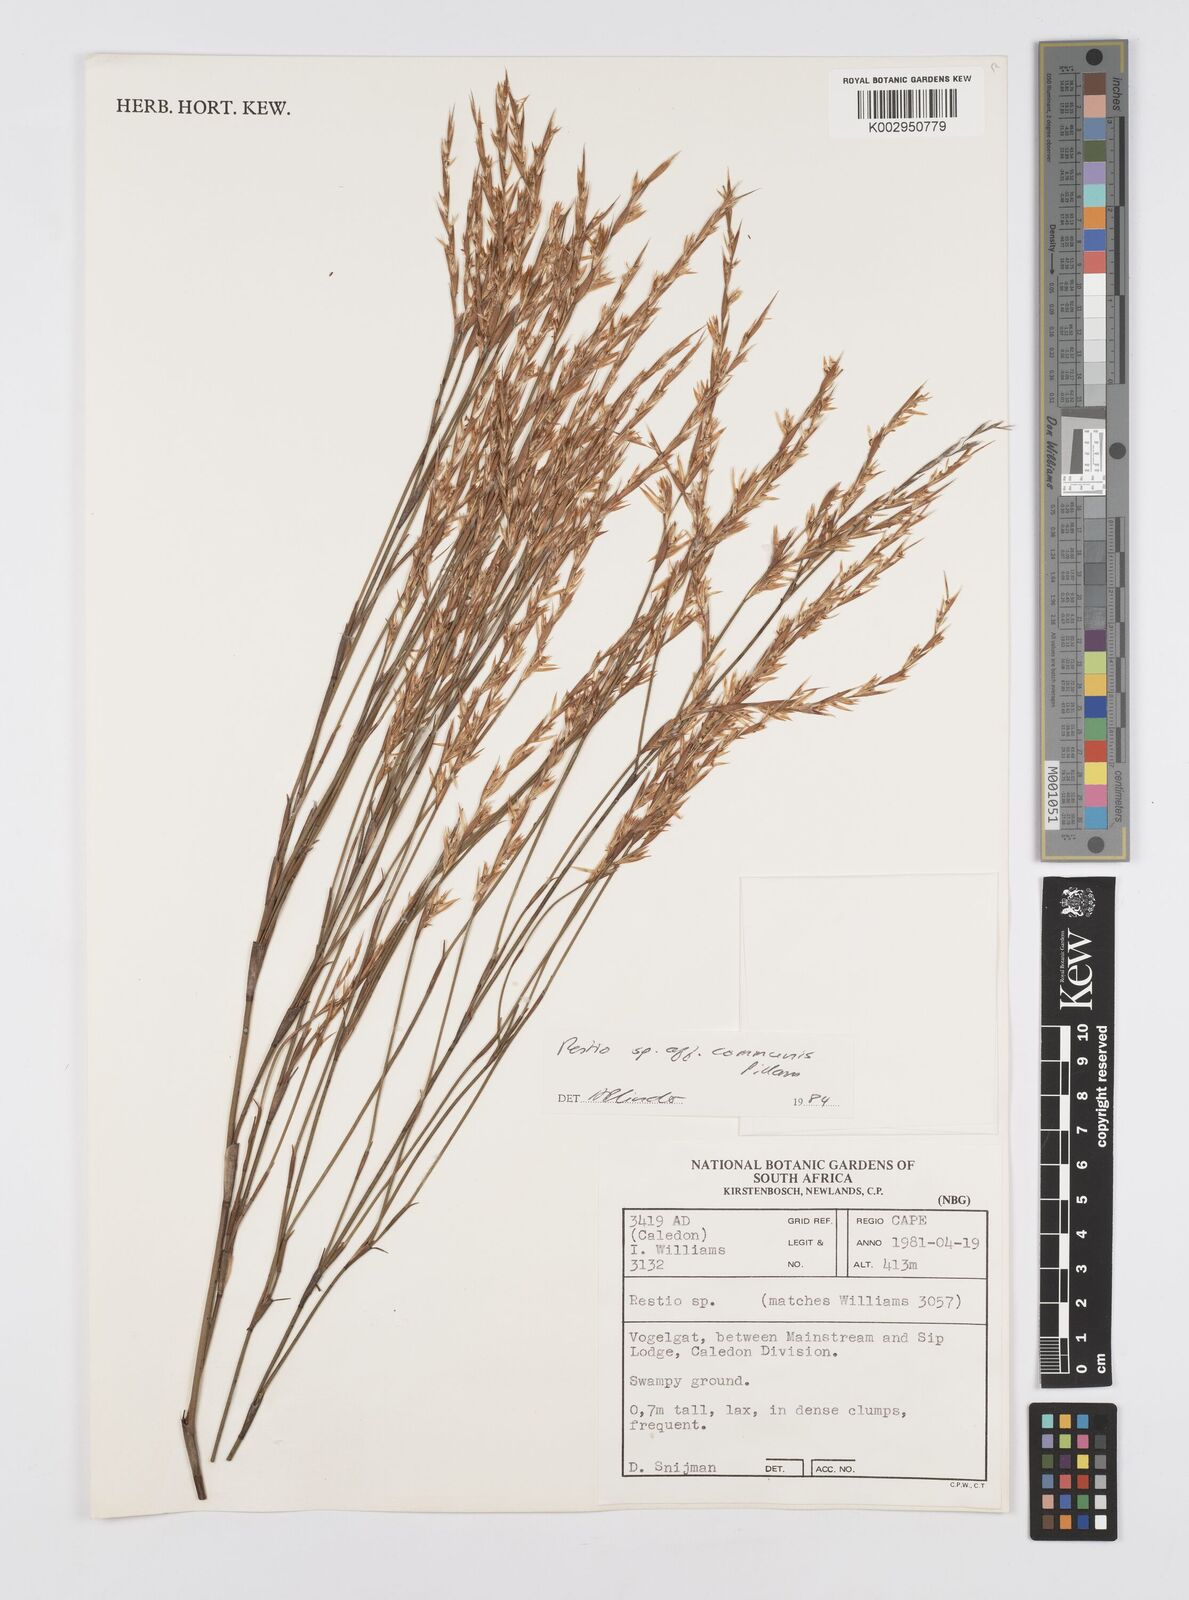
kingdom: Plantae
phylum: Tracheophyta
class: Liliopsida
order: Poales
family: Restionaceae
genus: Restio
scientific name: Restio communis
